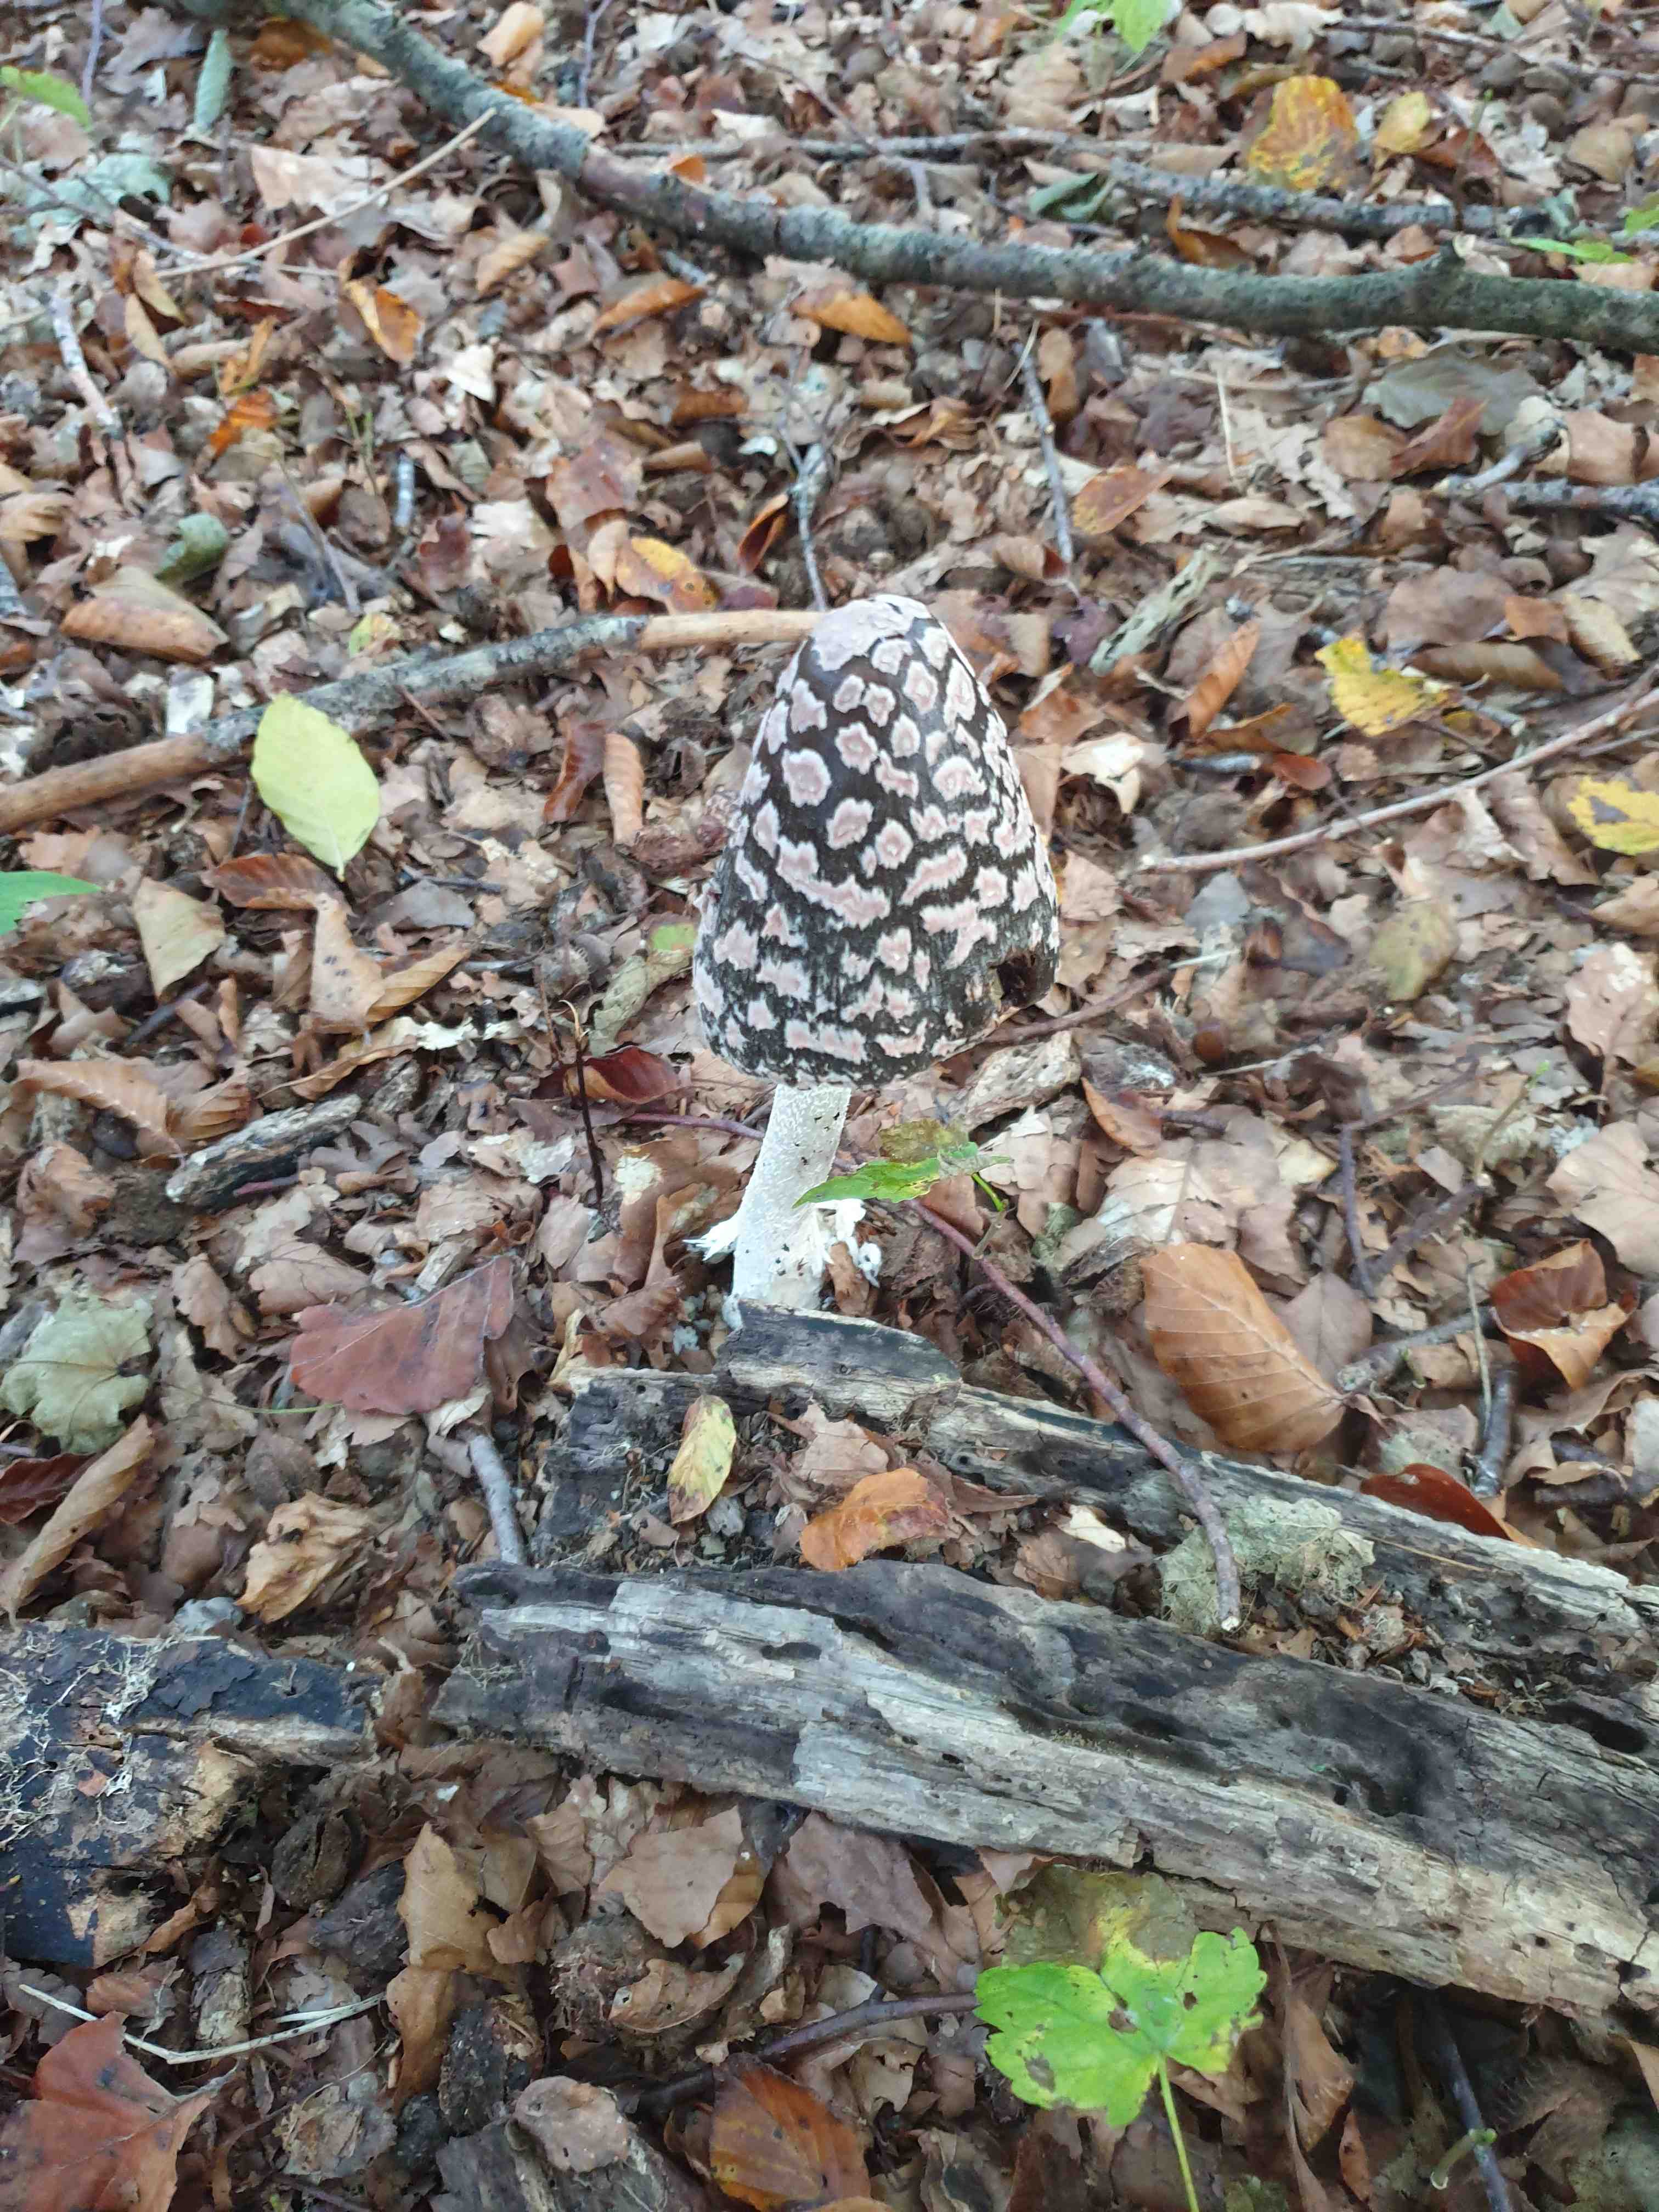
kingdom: Fungi
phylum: Basidiomycota
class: Agaricomycetes
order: Agaricales
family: Psathyrellaceae
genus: Coprinopsis
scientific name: Coprinopsis picacea
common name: skade-blækhat
